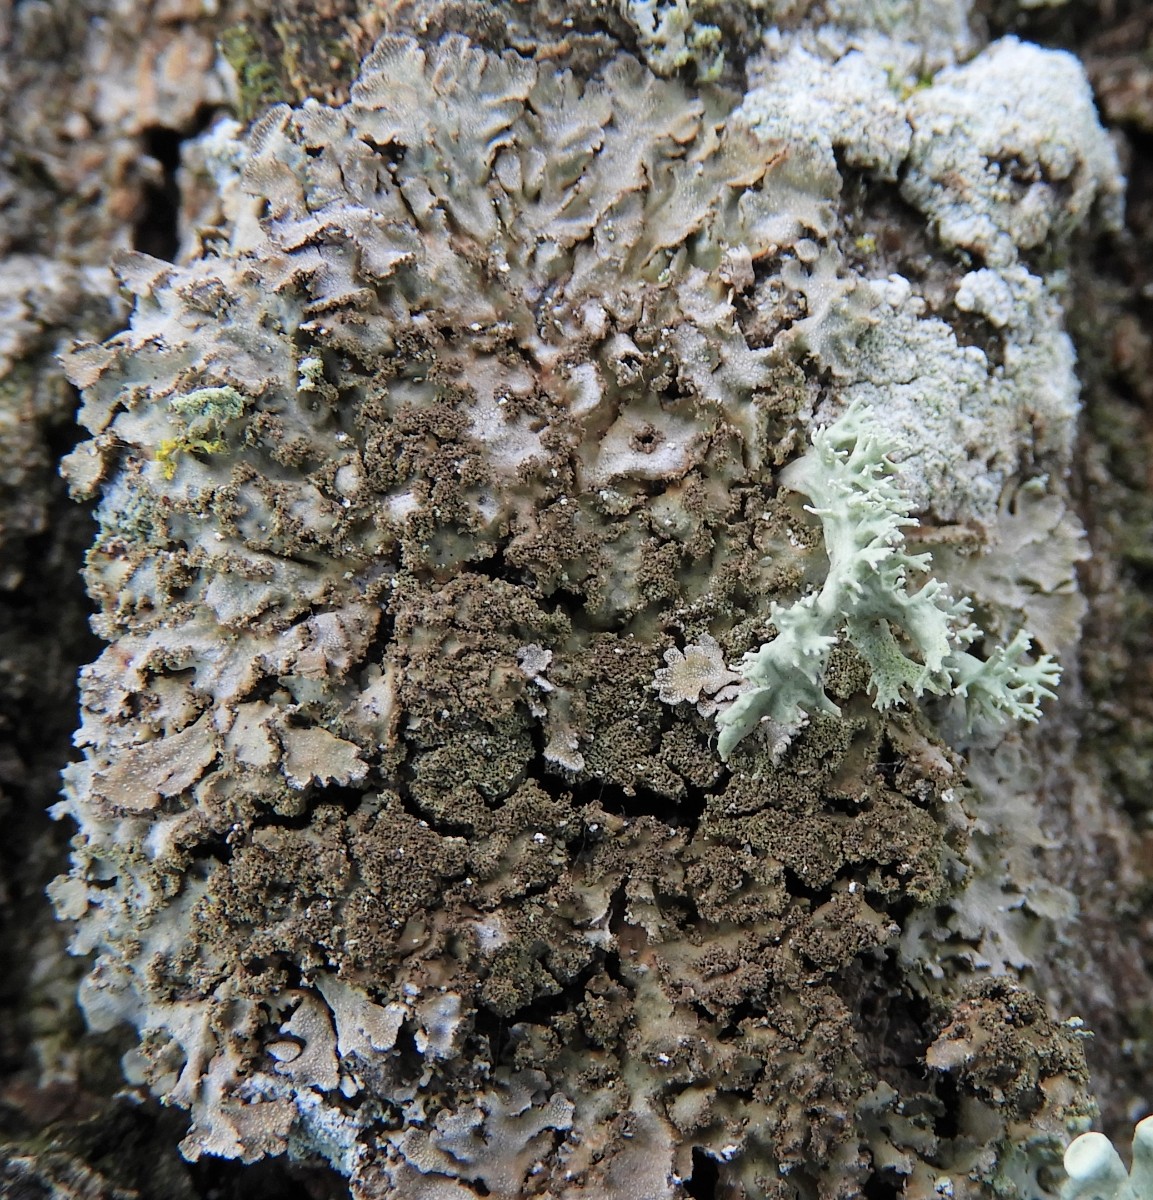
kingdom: Fungi
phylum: Ascomycota
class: Lecanoromycetes
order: Caliciales
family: Physciaceae
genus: Physconia
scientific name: Physconia
